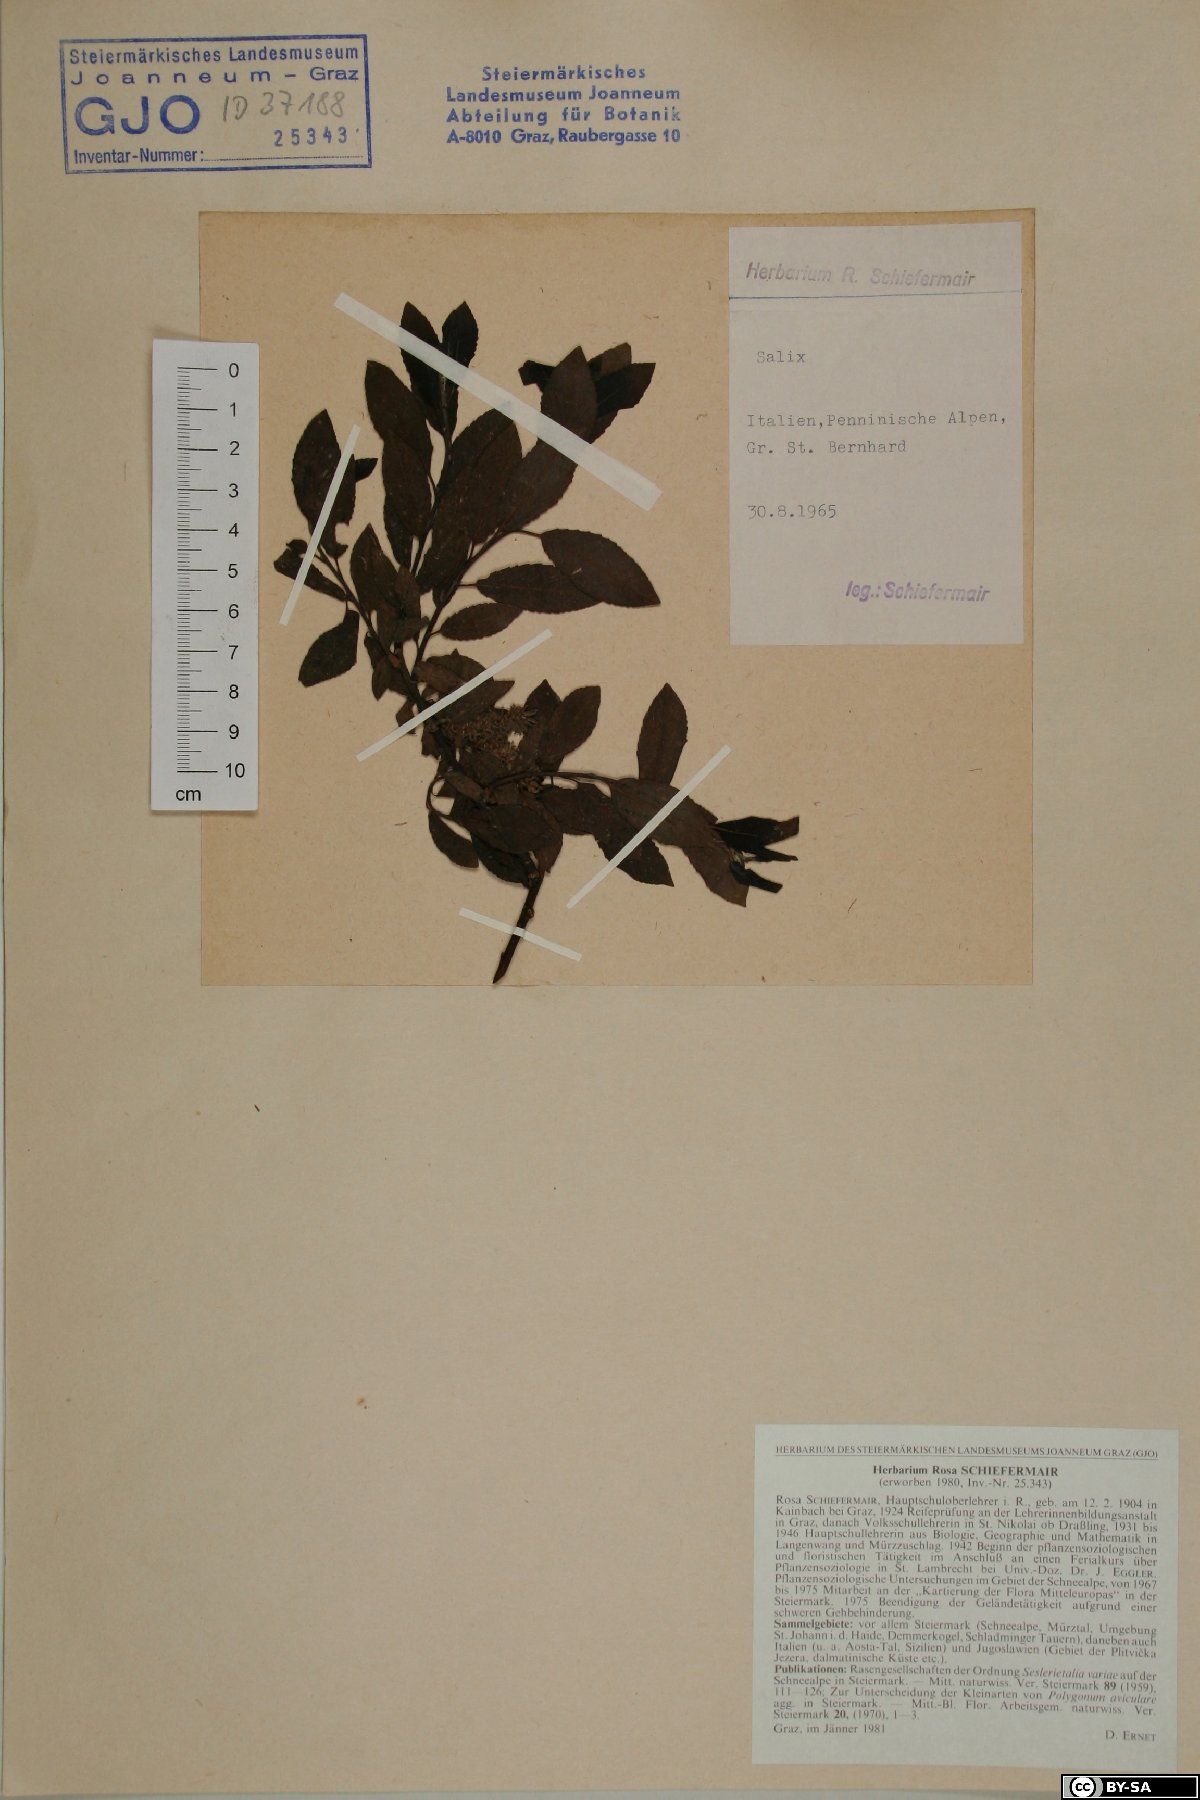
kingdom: Plantae
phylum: Tracheophyta
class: Magnoliopsida
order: Malpighiales
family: Salicaceae
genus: Salix
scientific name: Salix
